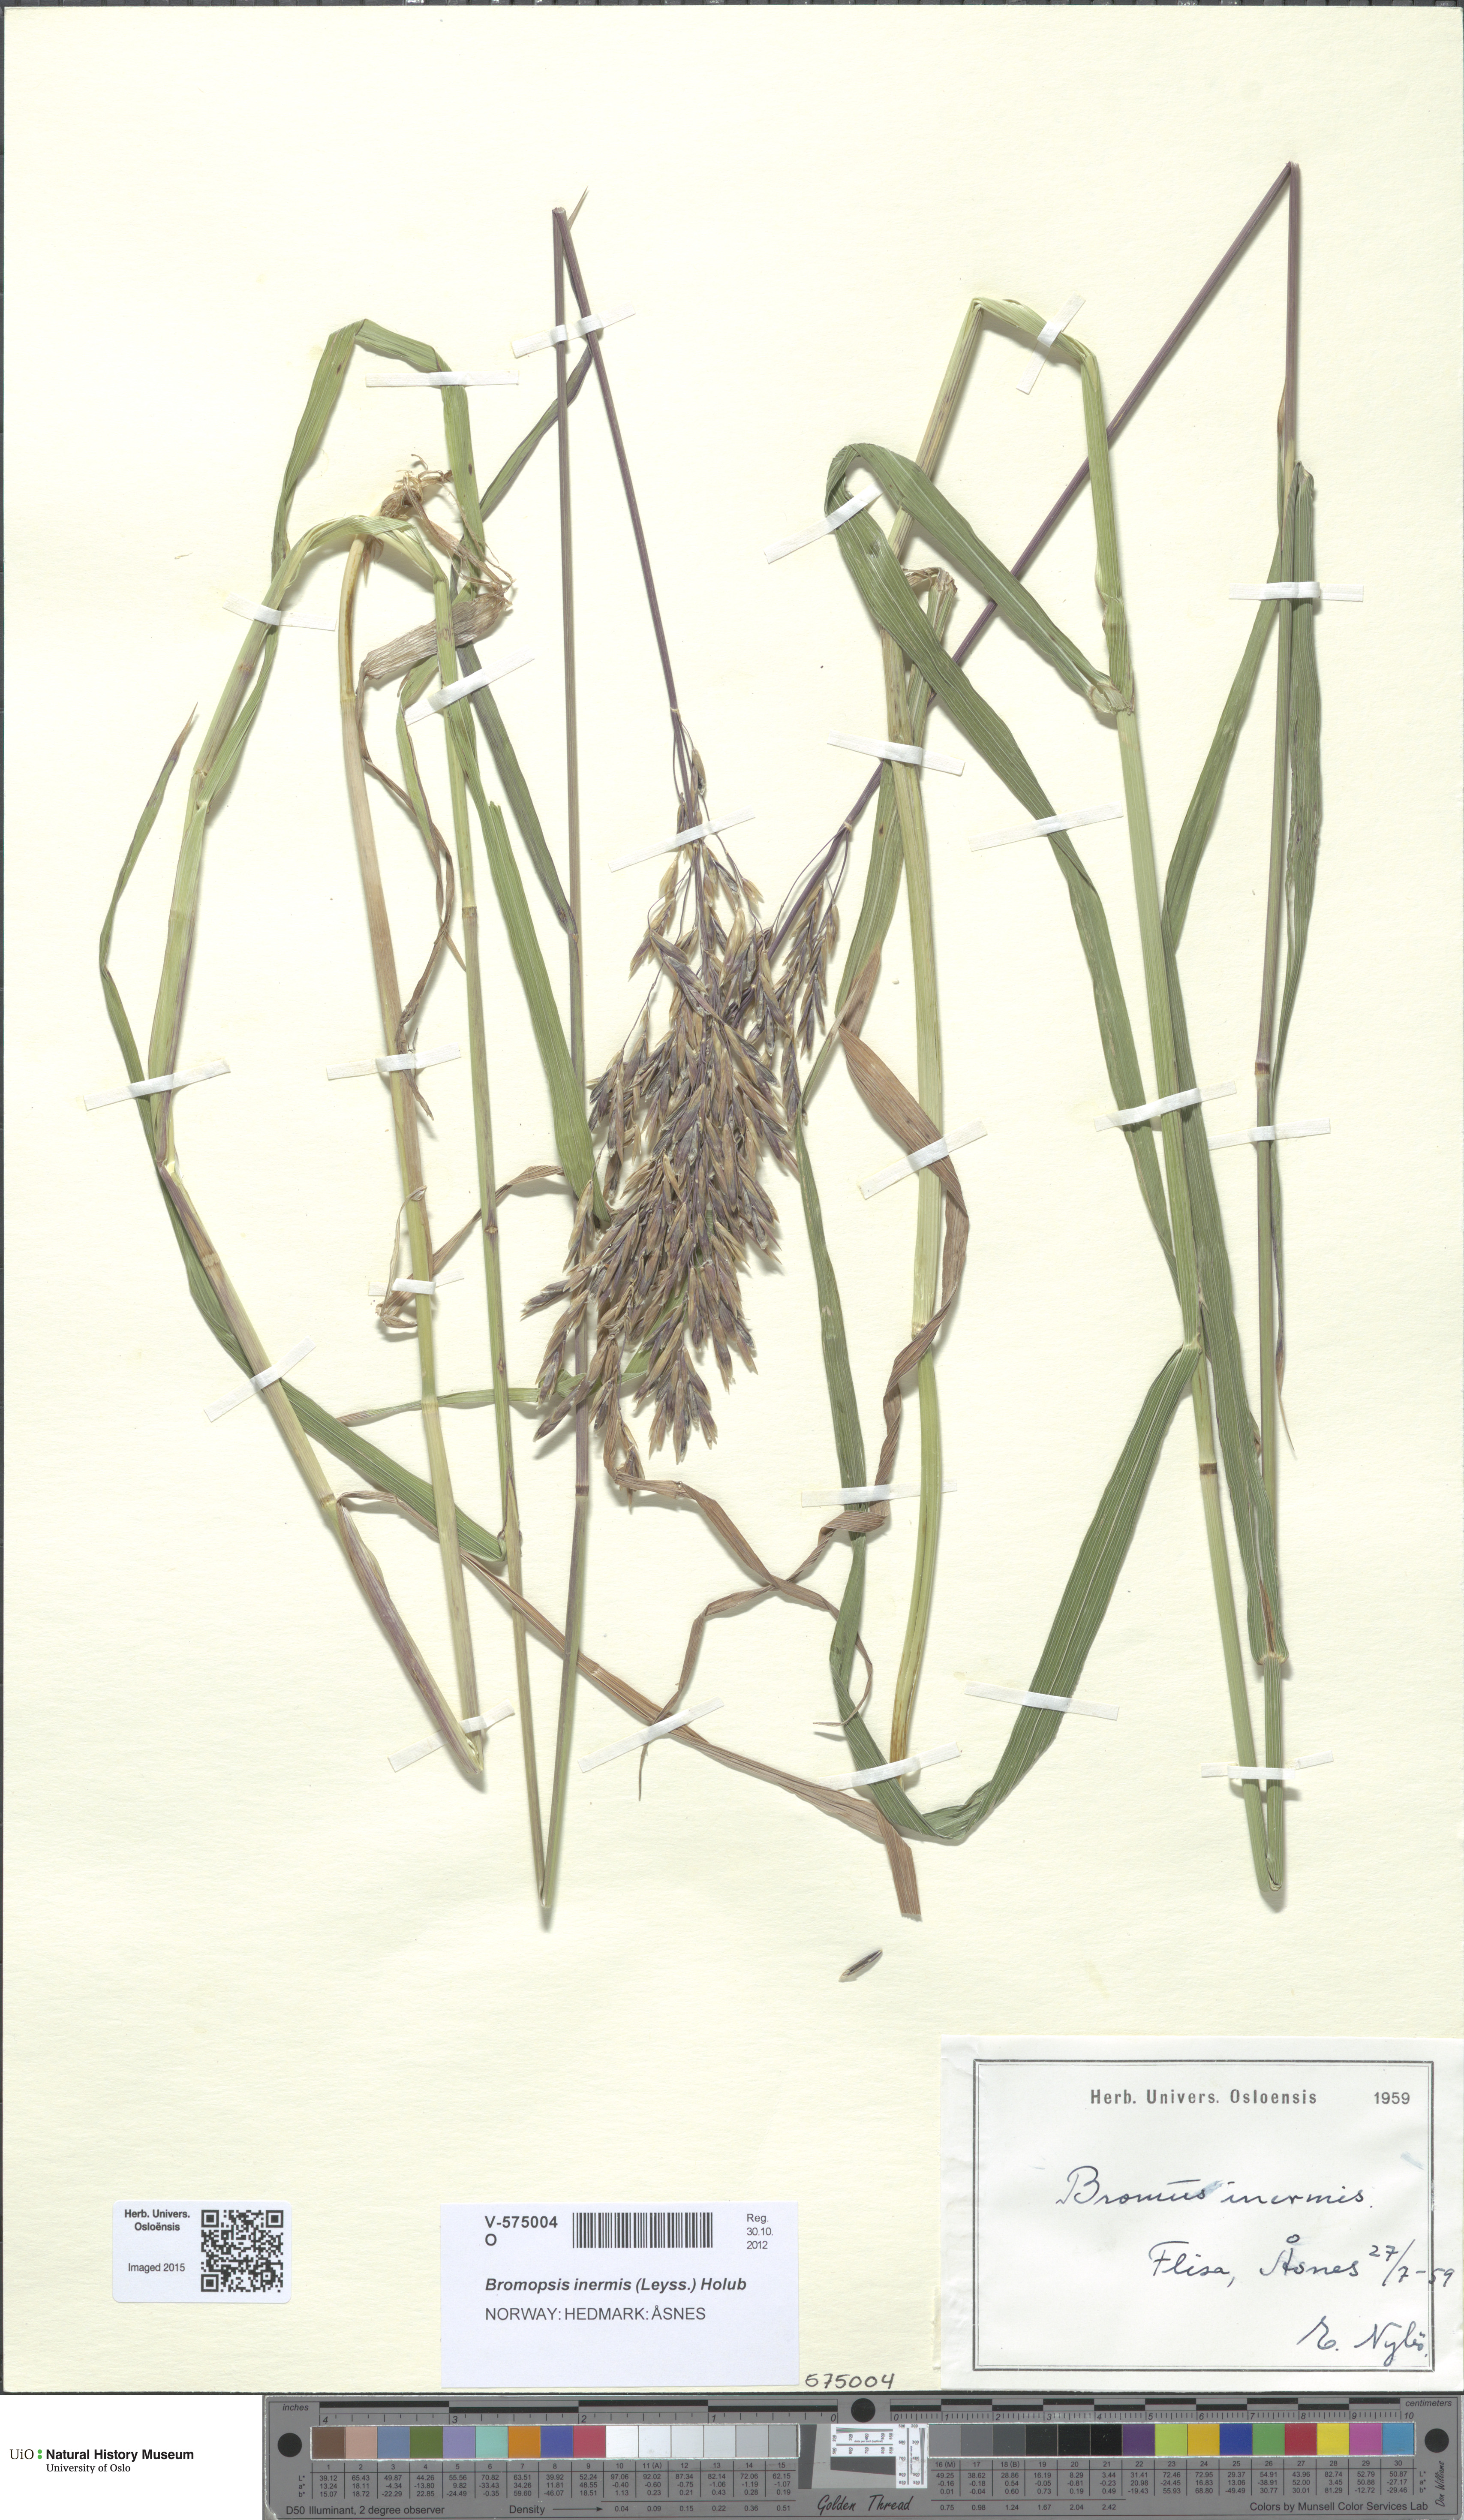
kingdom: Plantae
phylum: Tracheophyta
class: Liliopsida
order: Poales
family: Poaceae
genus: Bromus
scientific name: Bromus inermis
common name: Smooth brome
